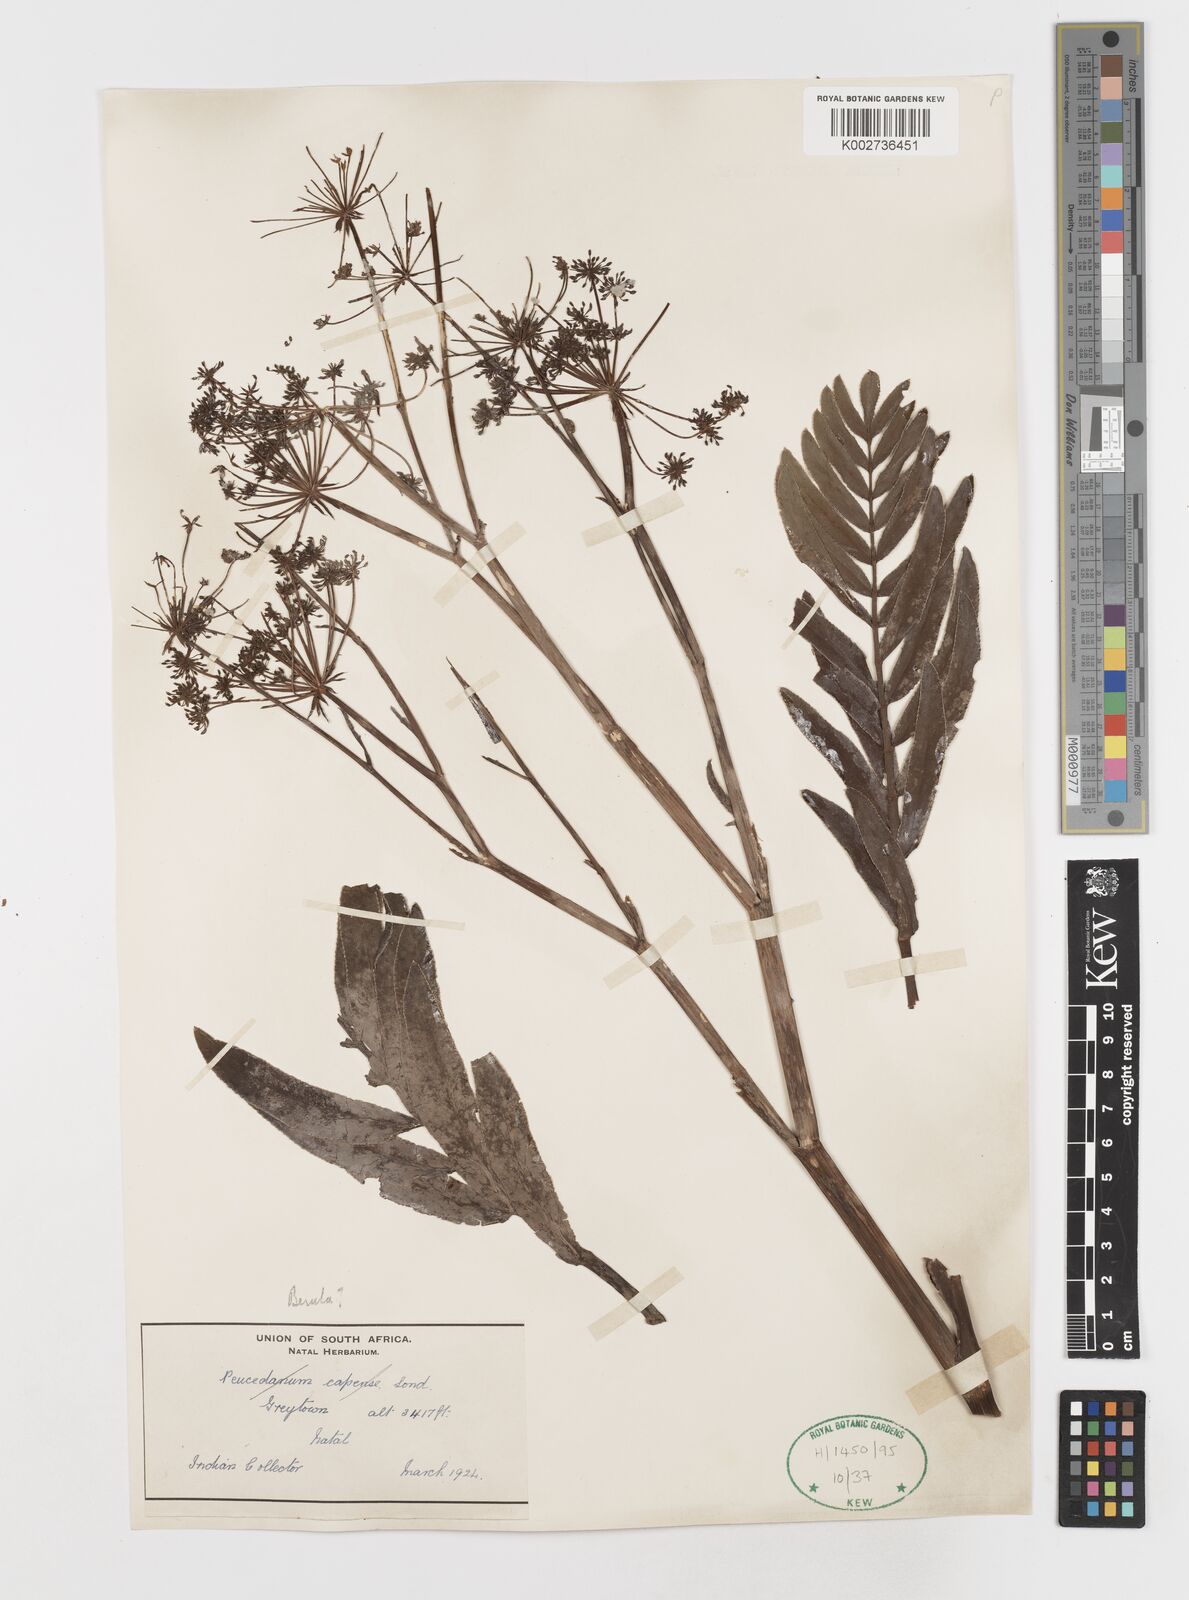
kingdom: Plantae
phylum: Tracheophyta
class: Magnoliopsida
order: Apiales
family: Apiaceae
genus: Berula
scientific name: Berula repanda
